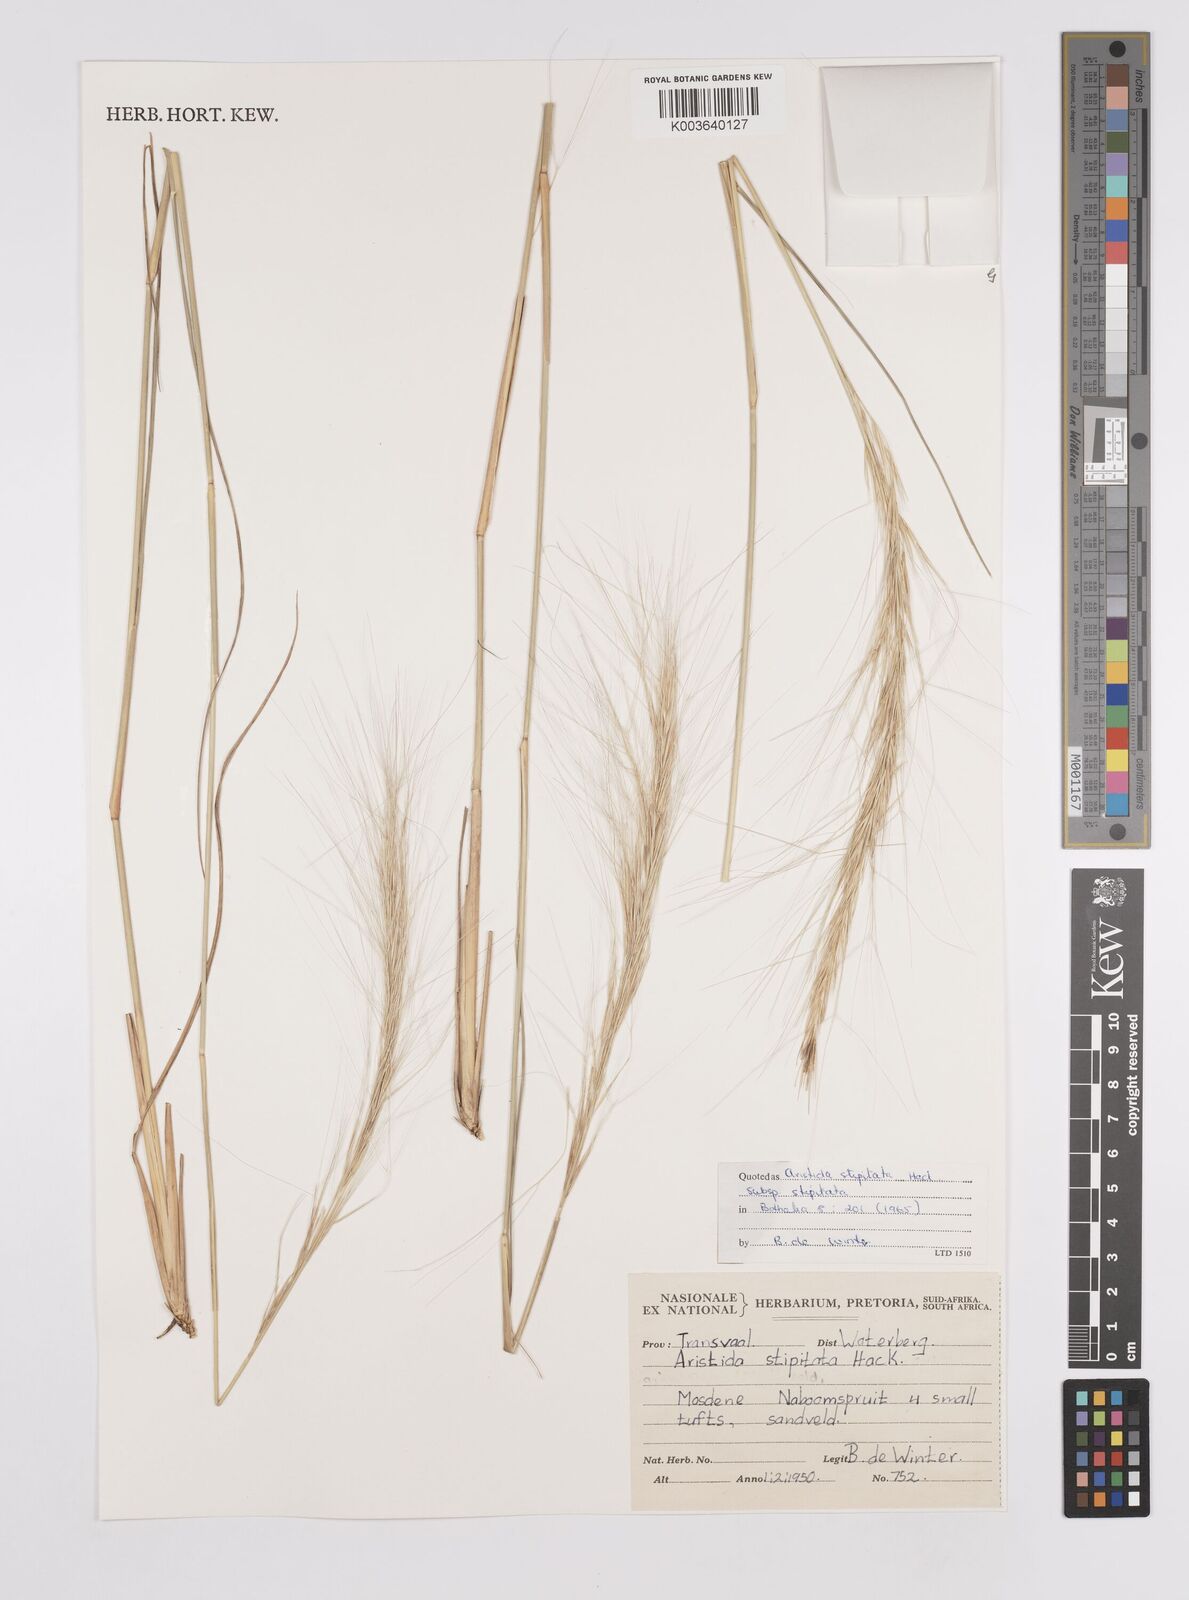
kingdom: Plantae
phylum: Tracheophyta
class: Liliopsida
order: Poales
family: Poaceae
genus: Aristida
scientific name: Aristida stipitata
